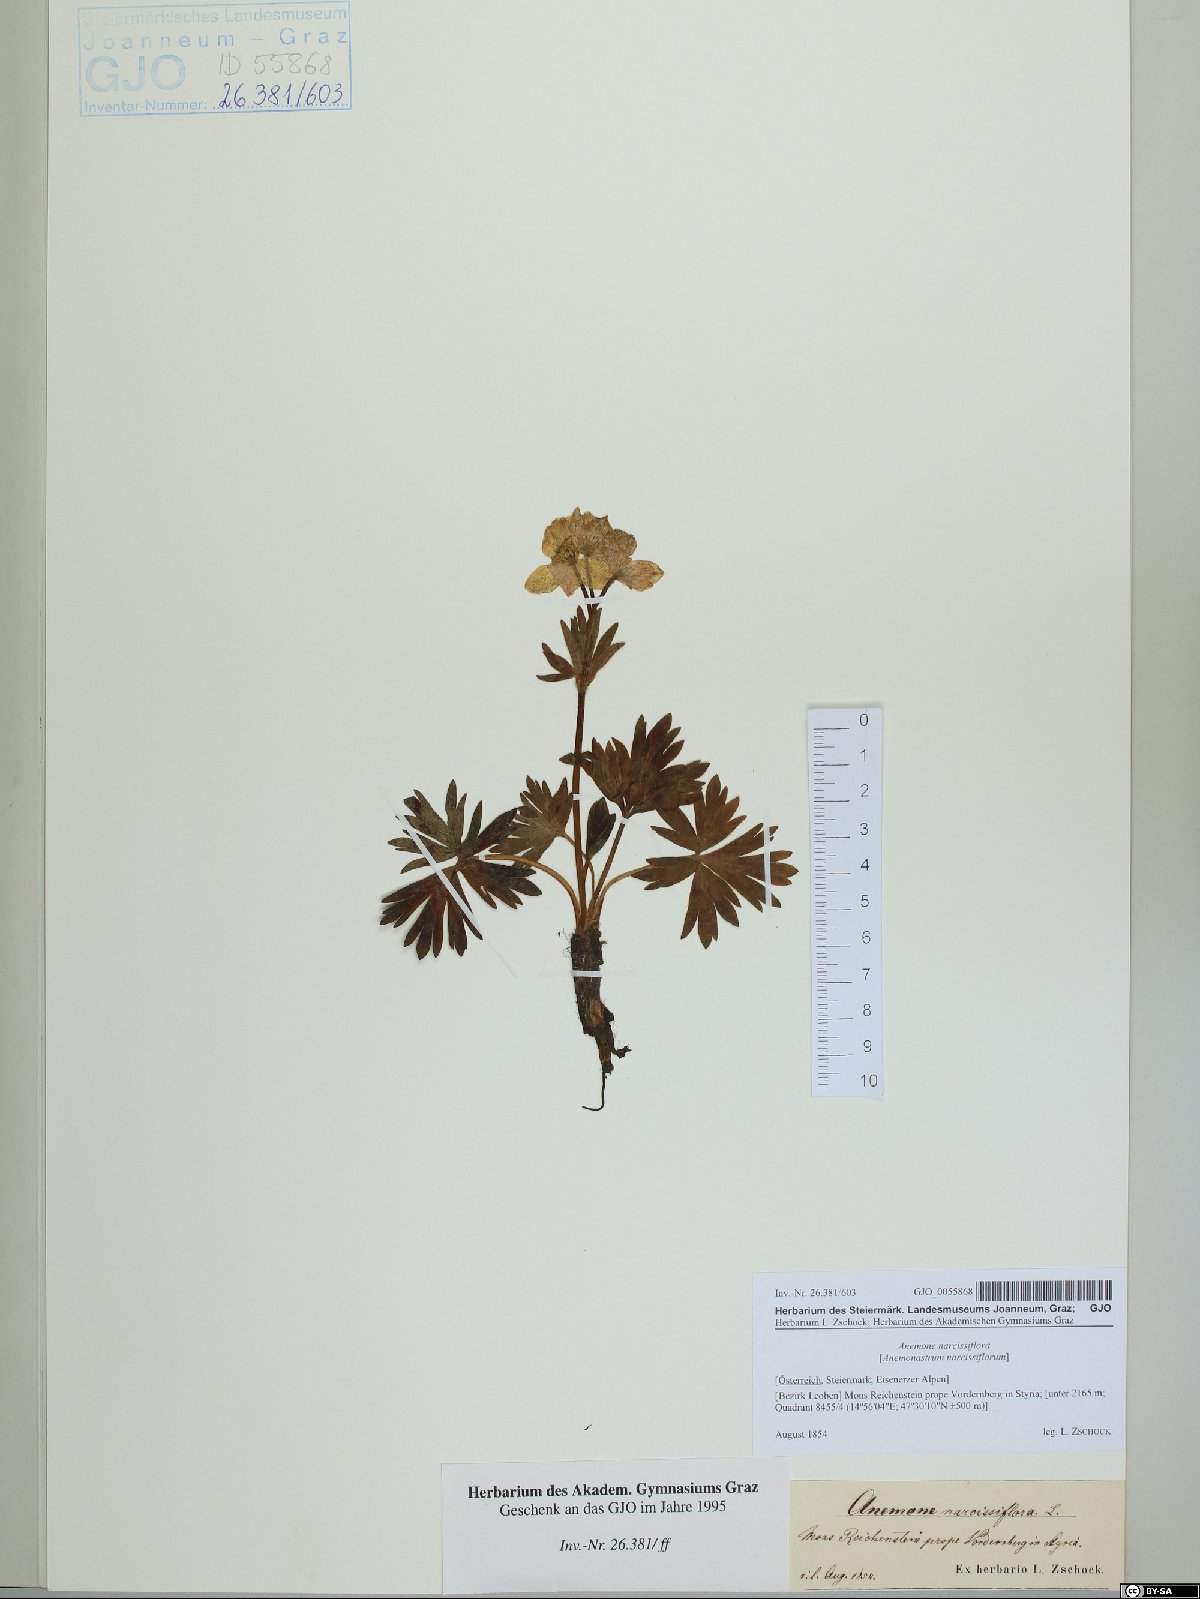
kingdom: Plantae
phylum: Tracheophyta
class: Magnoliopsida
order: Ranunculales
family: Ranunculaceae
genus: Anemonastrum
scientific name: Anemonastrum narcissiflorum
